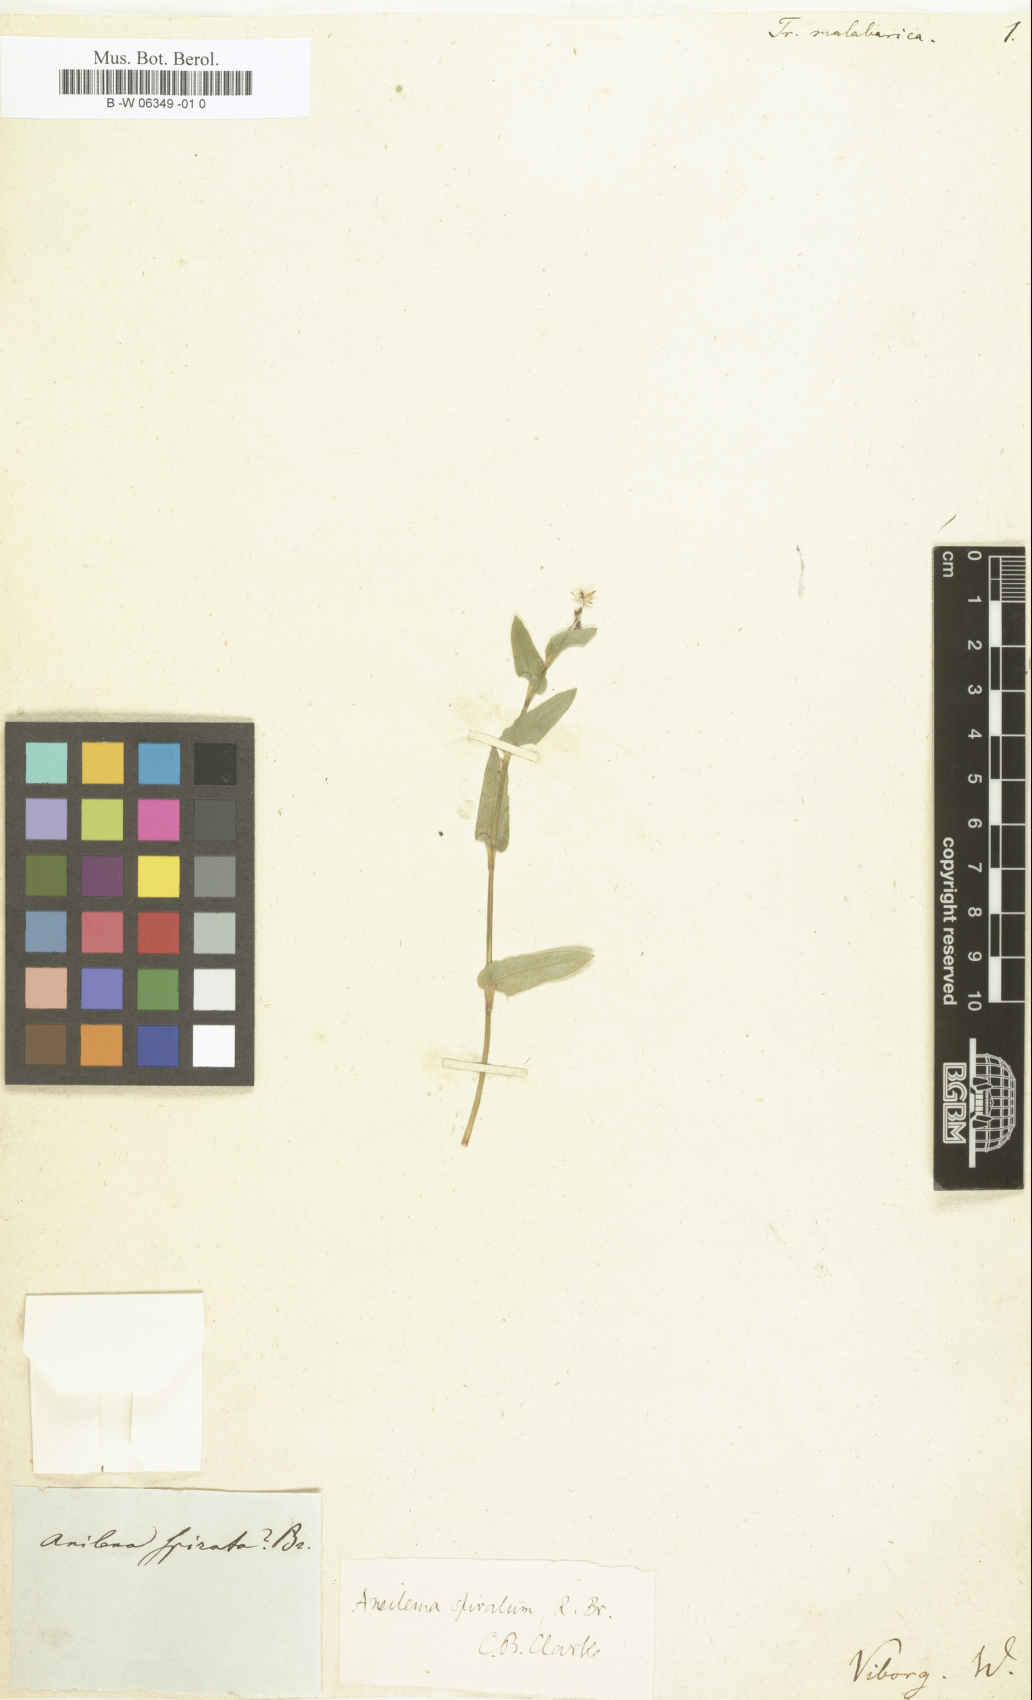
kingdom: Plantae
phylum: Tracheophyta
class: Liliopsida
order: Commelinales
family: Commelinaceae
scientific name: Commelinaceae
